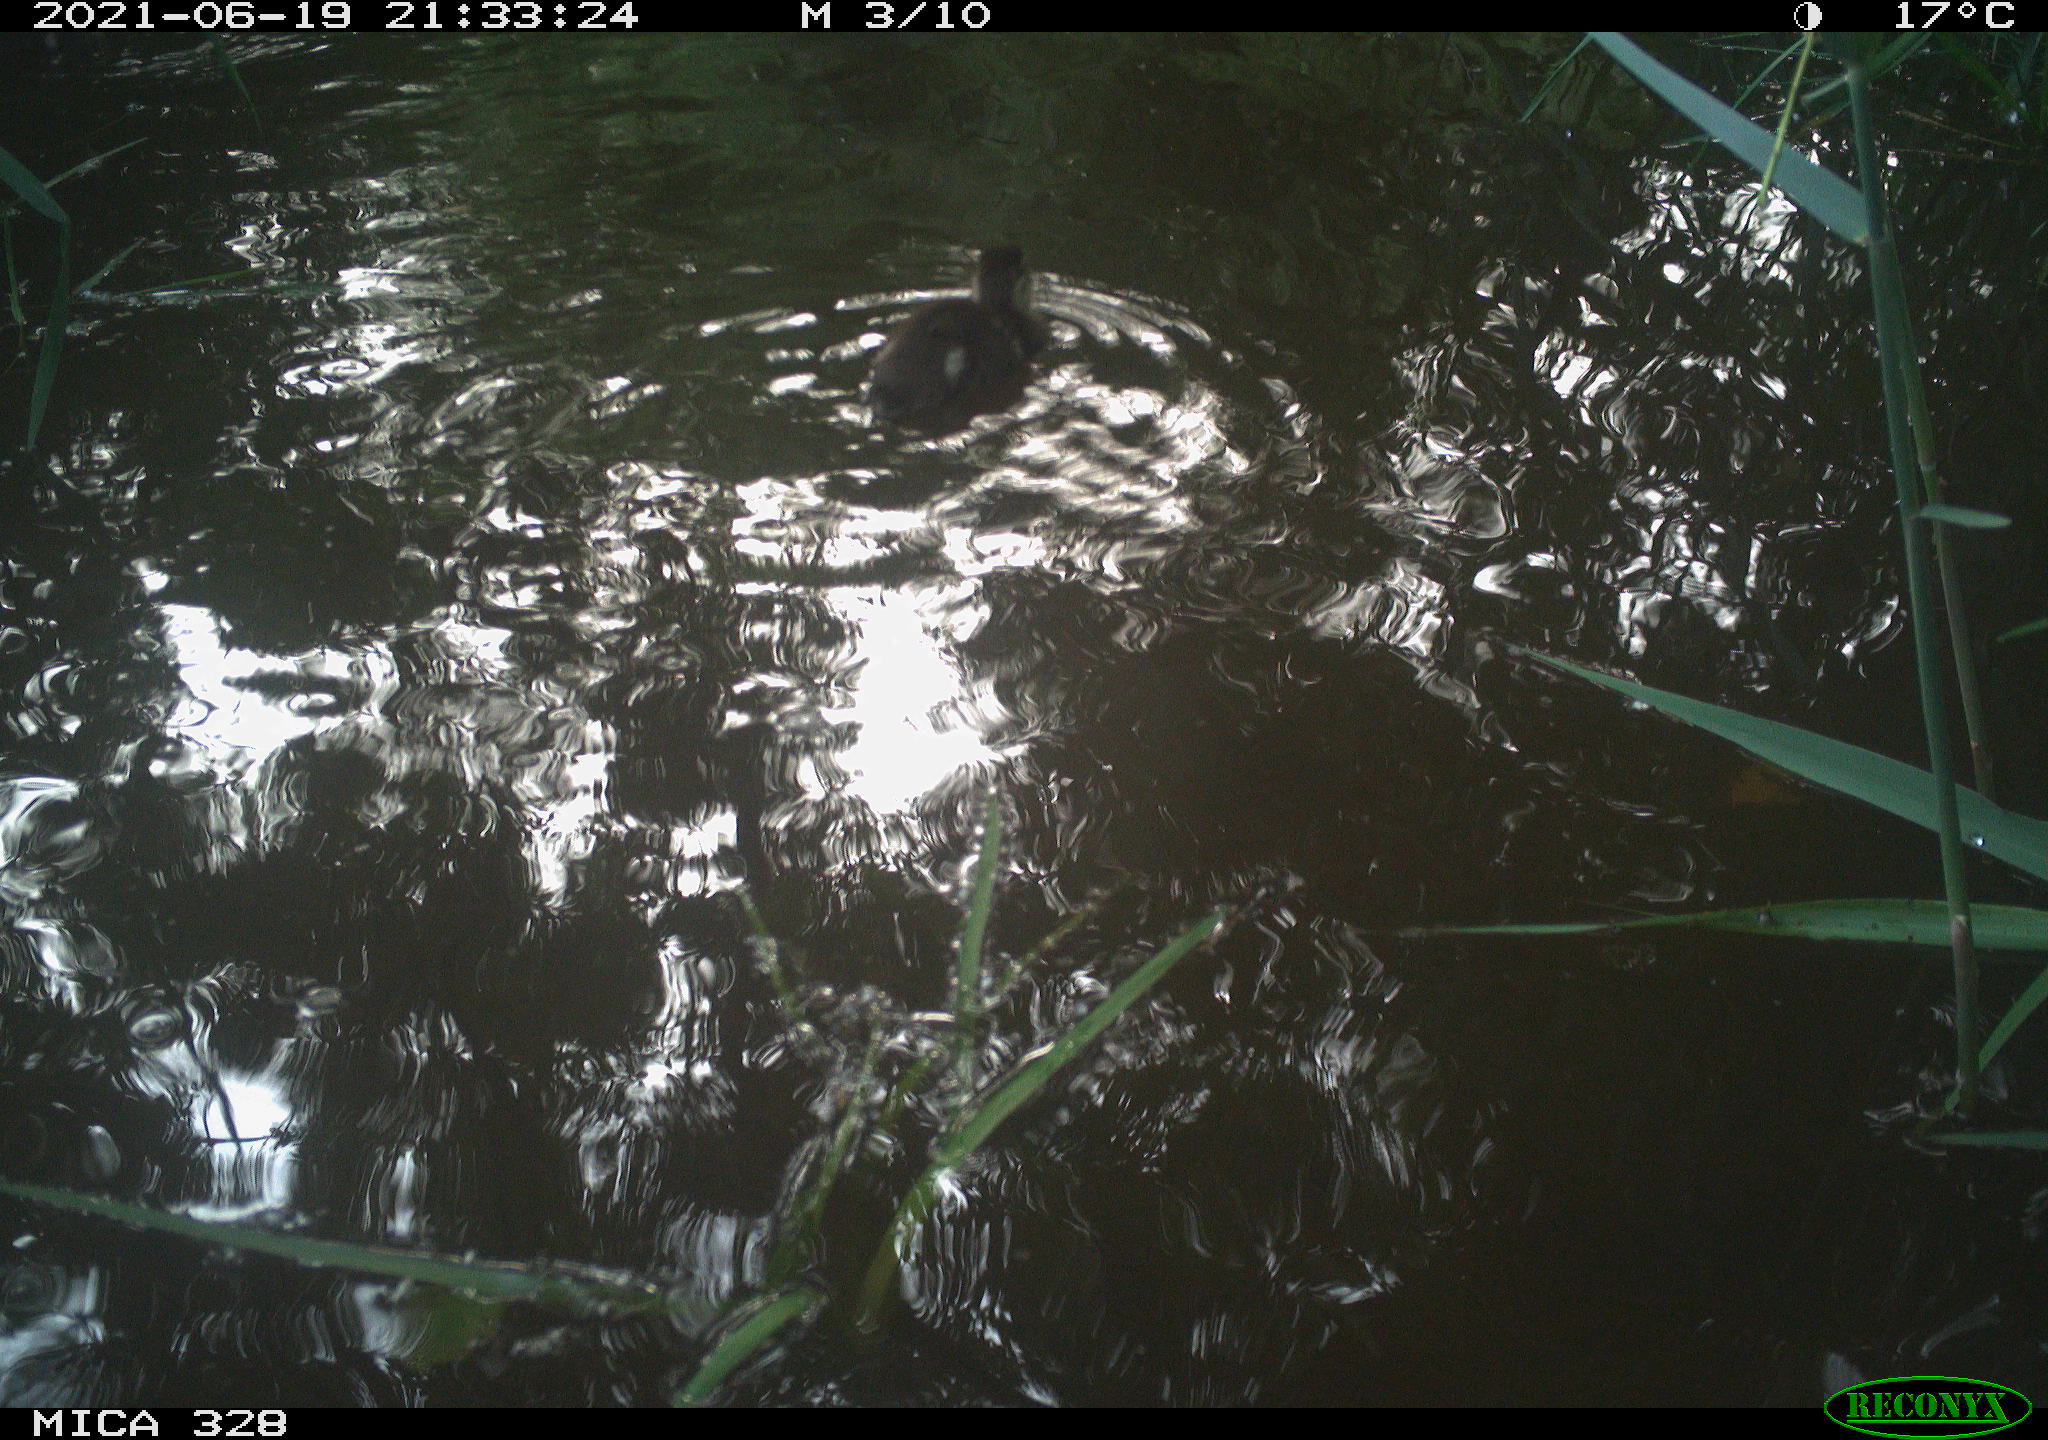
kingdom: Animalia
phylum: Chordata
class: Aves
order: Anseriformes
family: Anatidae
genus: Aix
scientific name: Aix galericulata
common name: Mandarin duck
